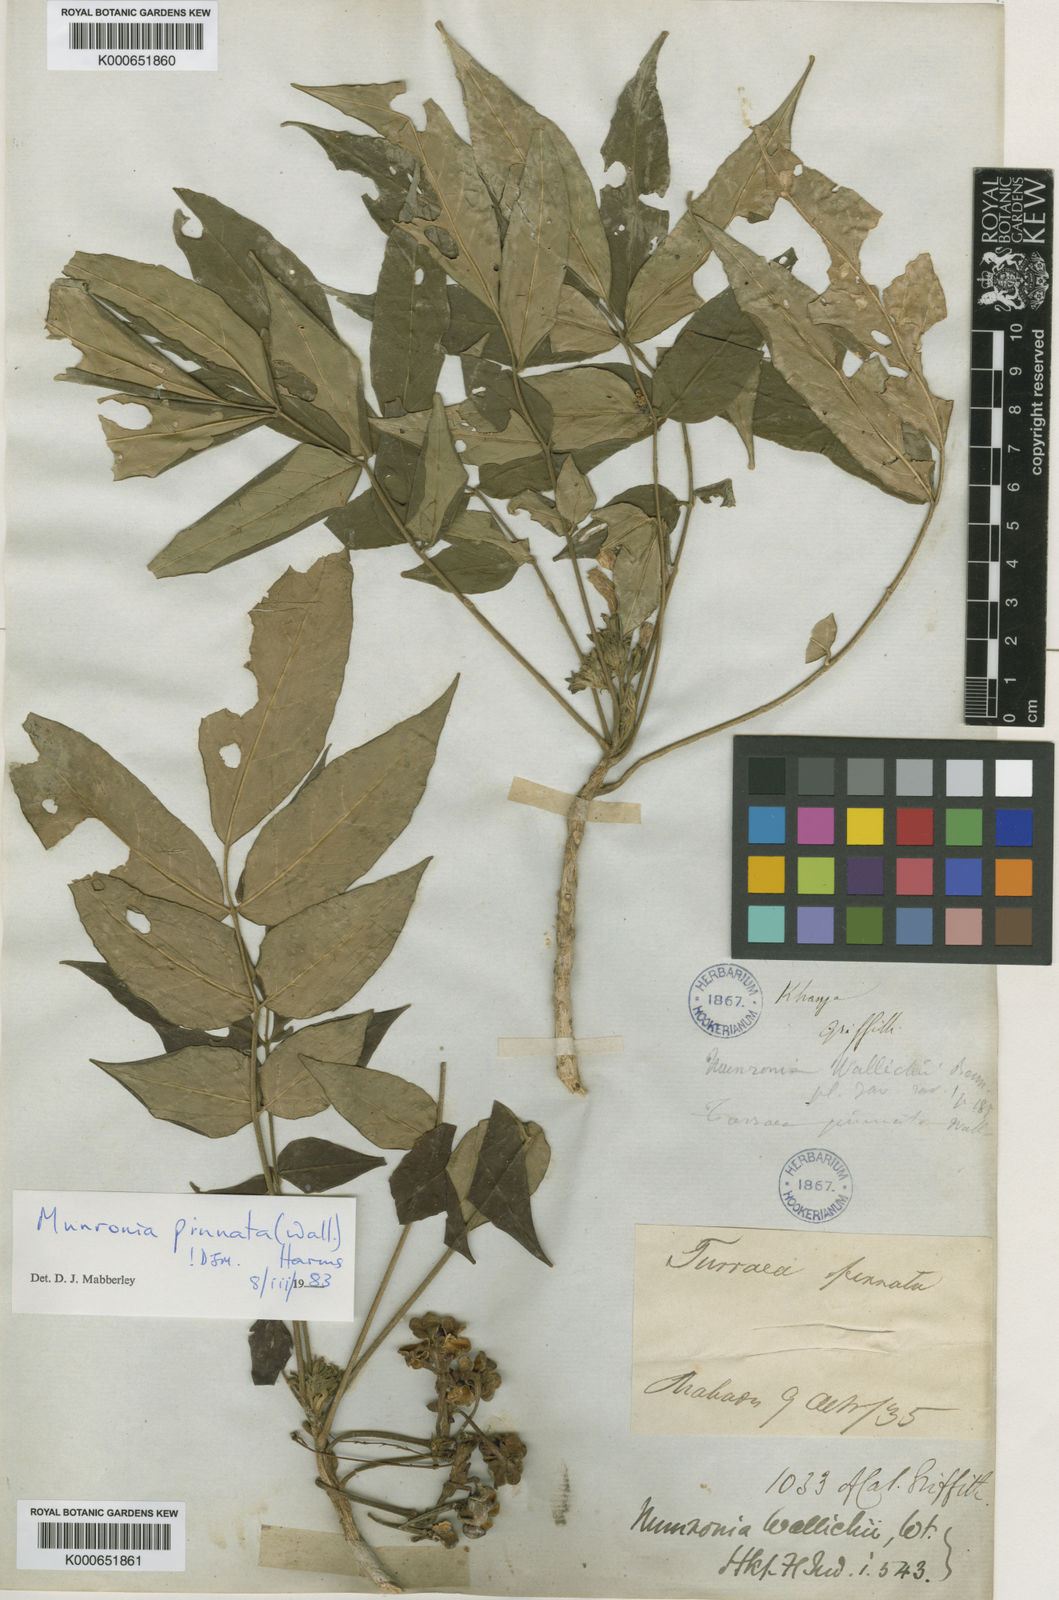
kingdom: Plantae
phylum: Tracheophyta
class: Magnoliopsida
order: Sapindales
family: Meliaceae
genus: Munronia
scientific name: Munronia pinnata
